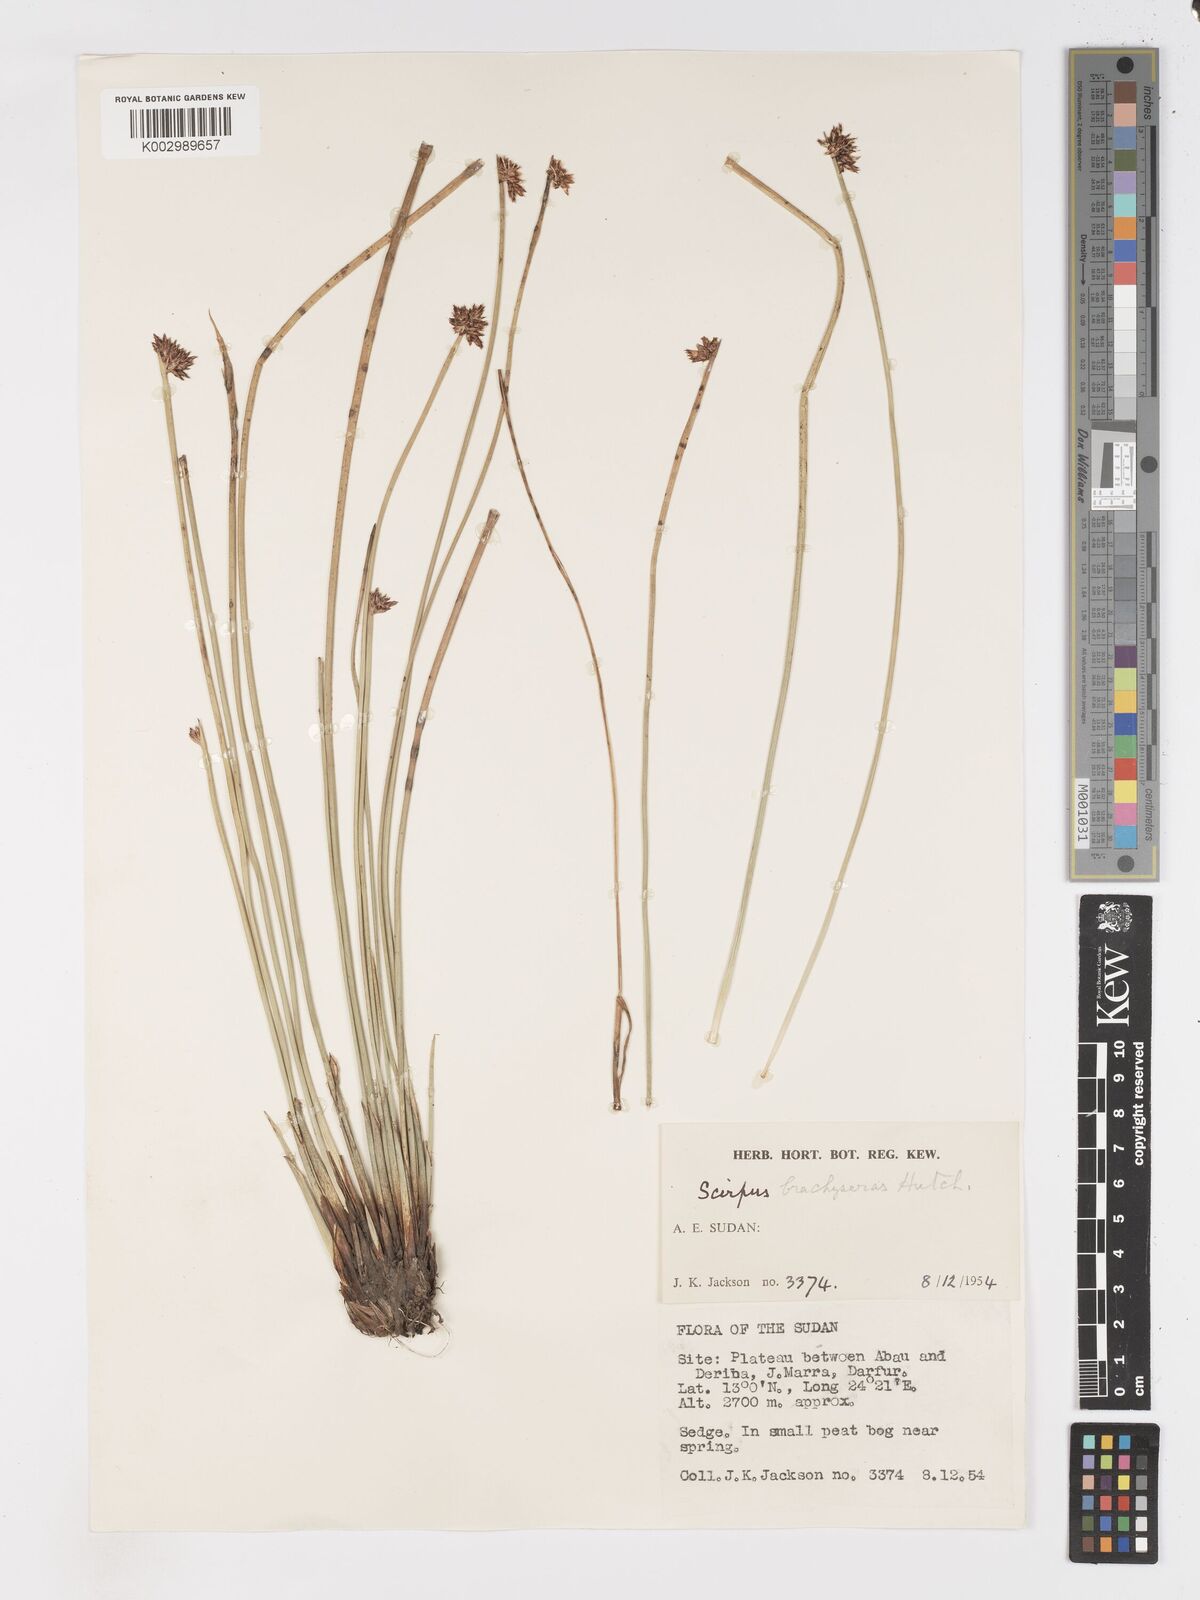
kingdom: Plantae
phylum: Tracheophyta
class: Liliopsida
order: Poales
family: Cyperaceae
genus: Schoenoplectiella
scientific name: Schoenoplectiella brachyceras
